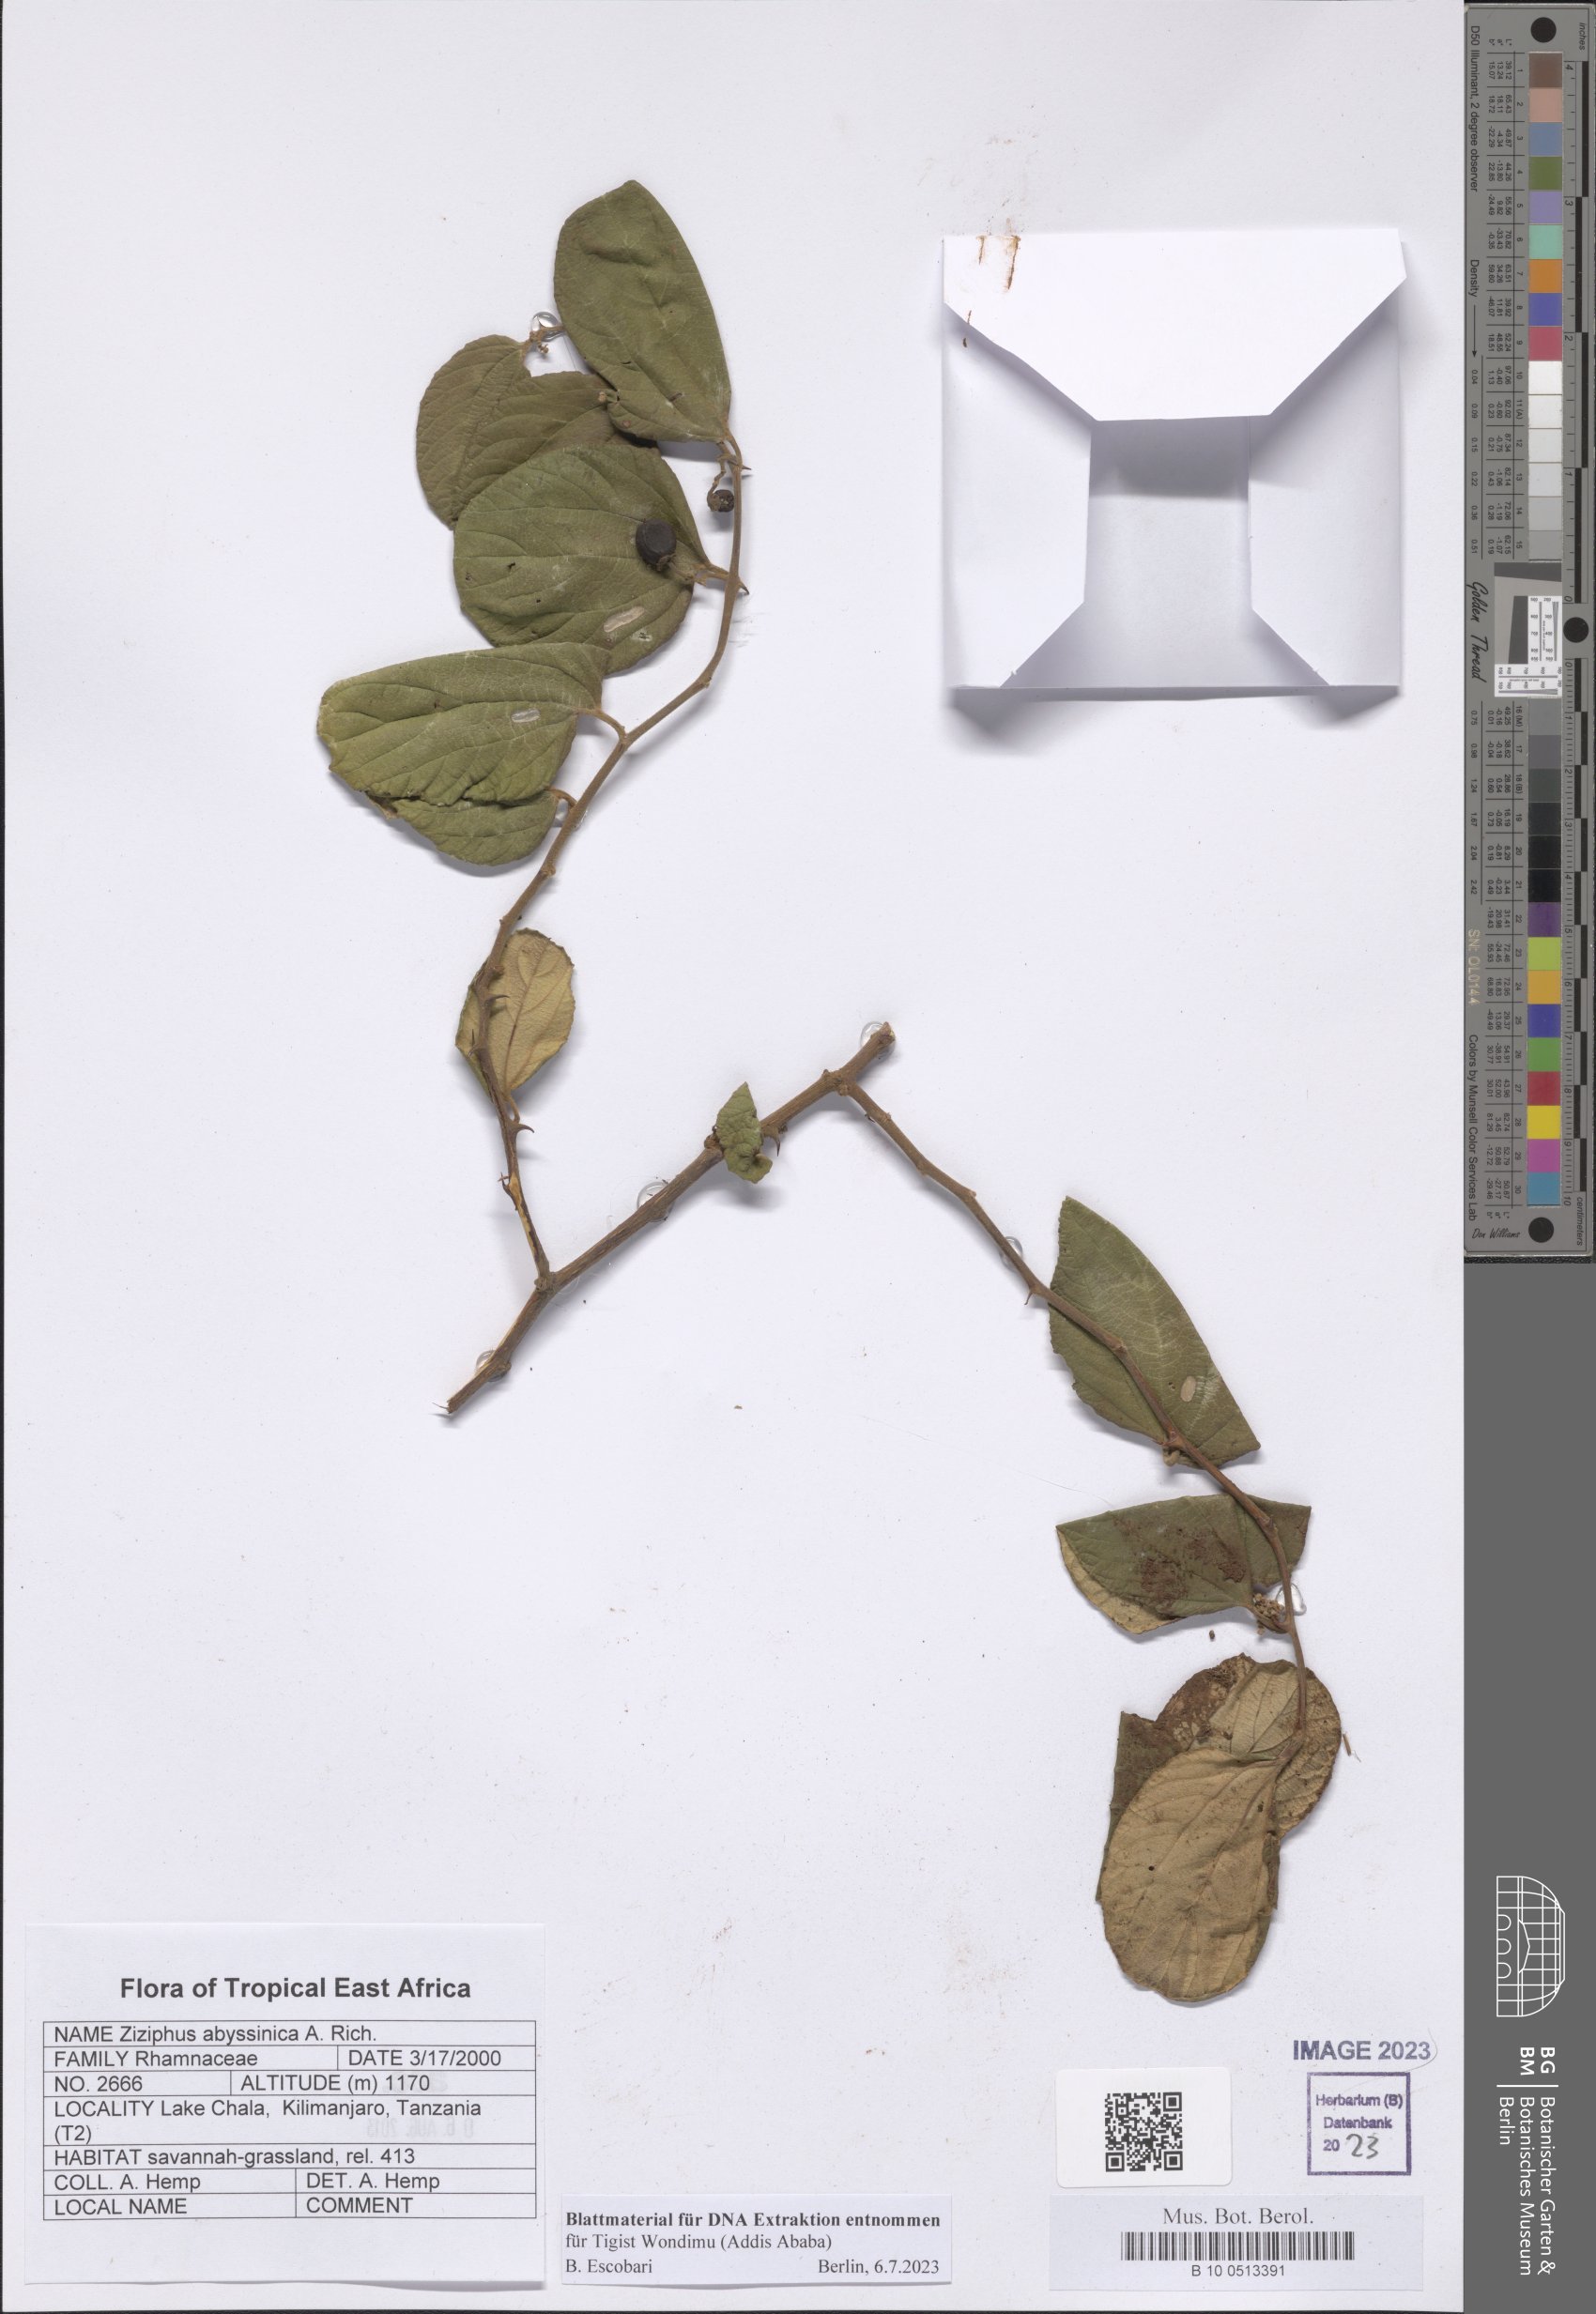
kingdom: Plantae
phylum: Tracheophyta
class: Magnoliopsida
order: Rosales
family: Rhamnaceae
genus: Ziziphus
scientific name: Ziziphus abyssinica
